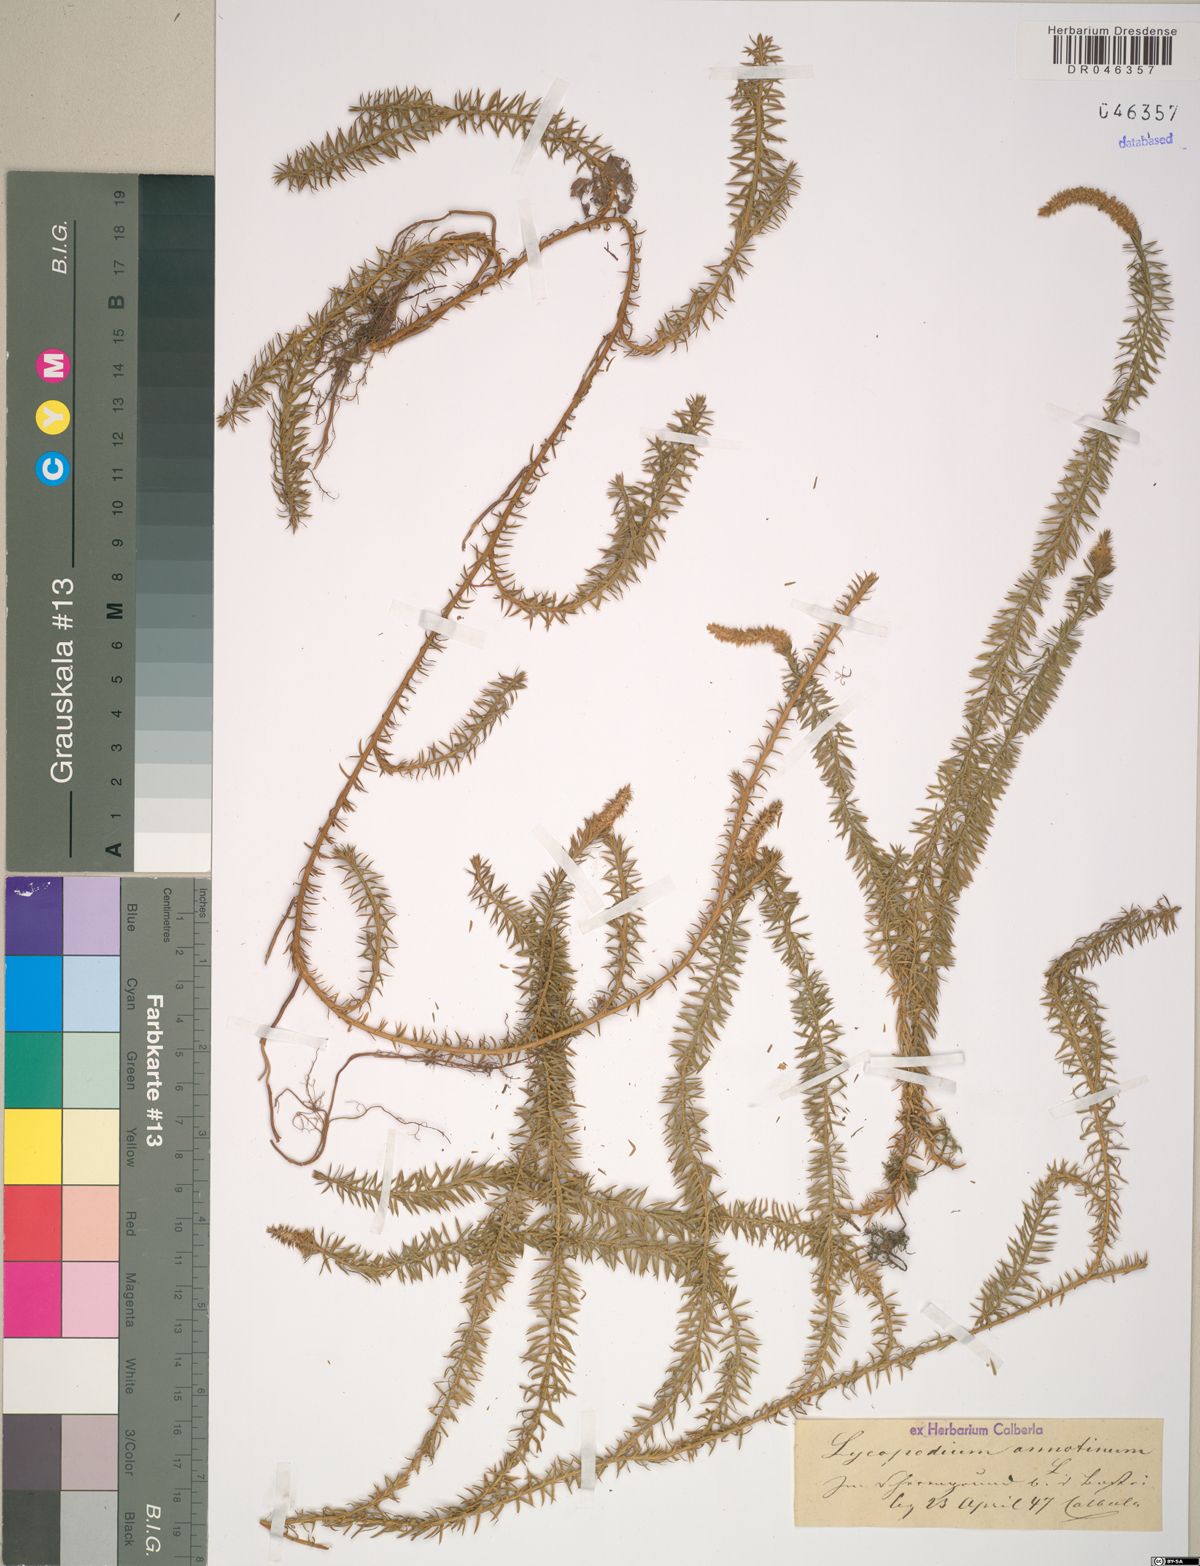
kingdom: Plantae
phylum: Tracheophyta
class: Lycopodiopsida
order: Lycopodiales
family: Lycopodiaceae
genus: Spinulum
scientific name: Spinulum annotinum
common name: Interrupted club-moss
